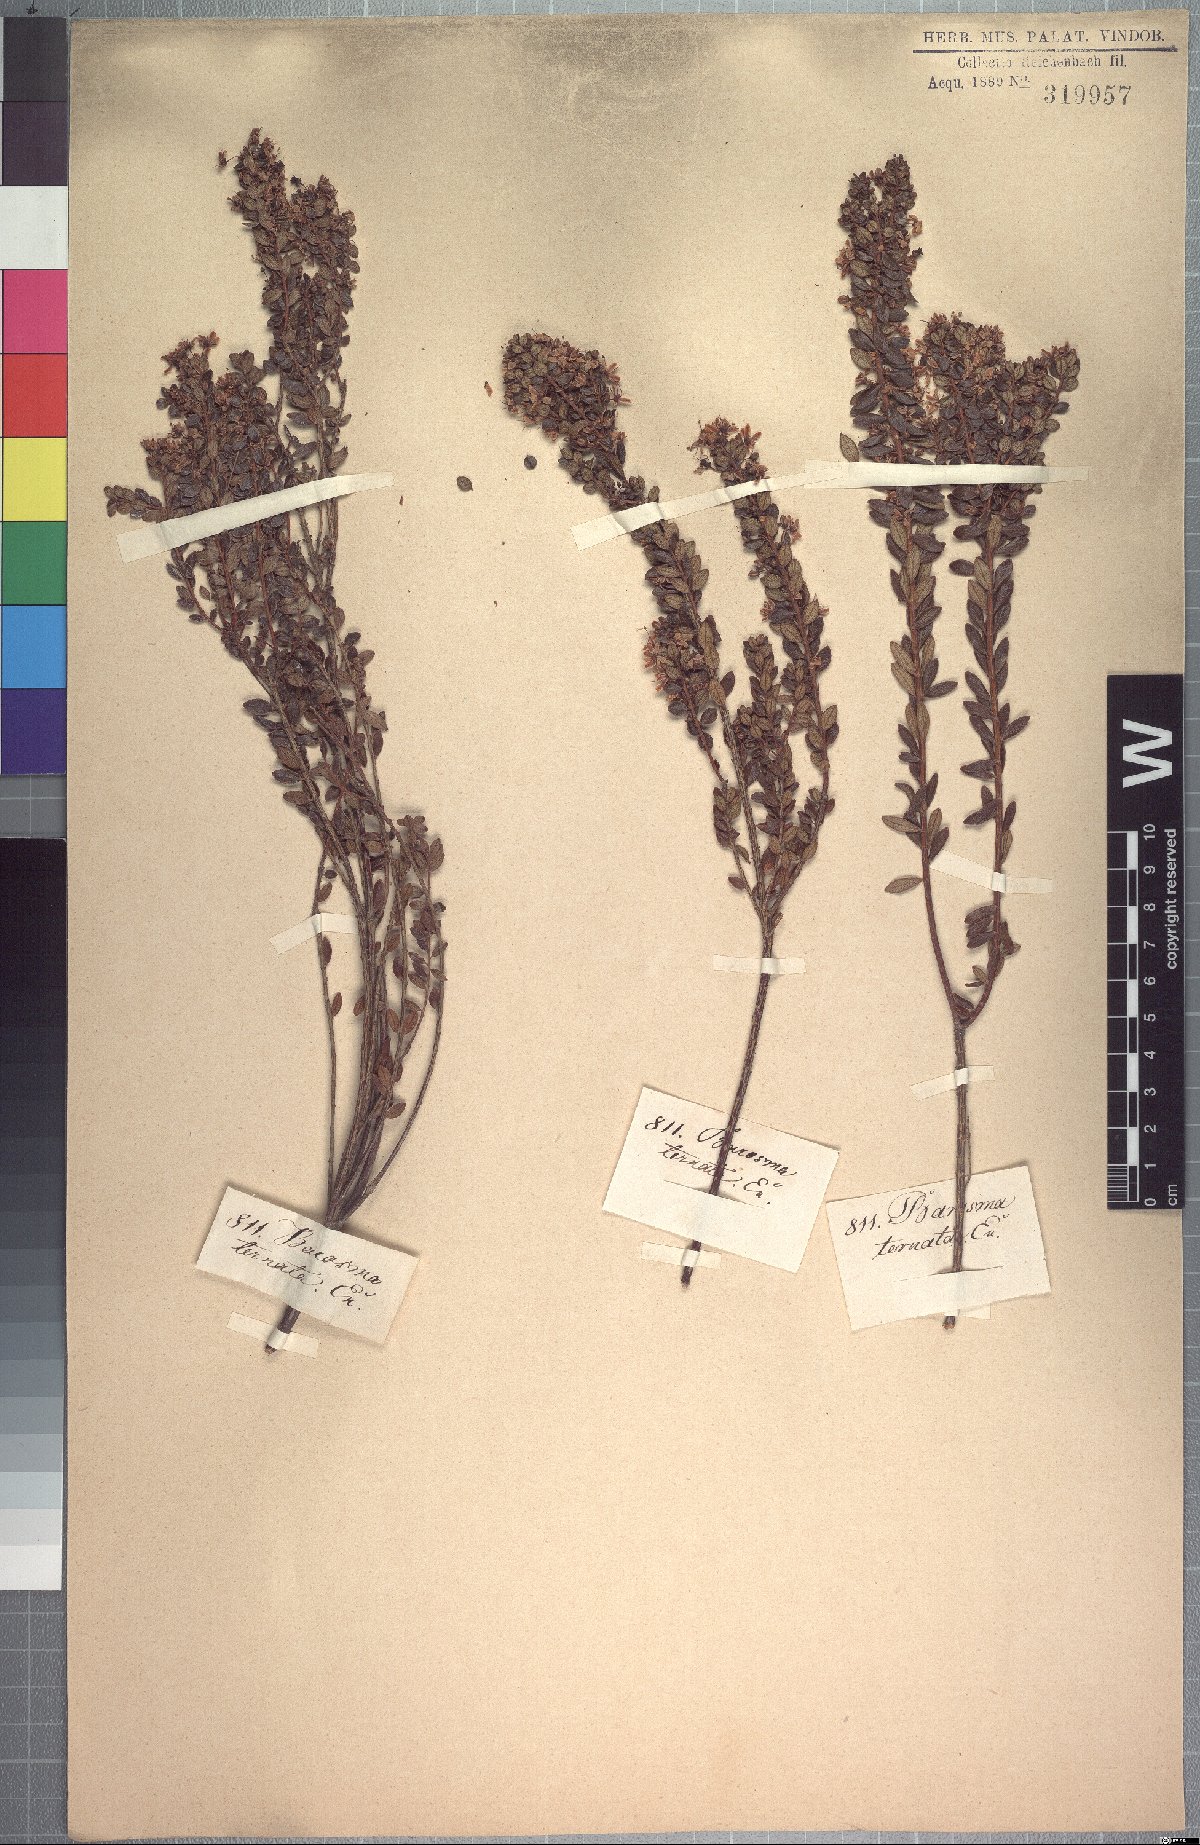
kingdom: Plantae
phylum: Tracheophyta
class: Magnoliopsida
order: Sapindales
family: Rutaceae
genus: Agathosma
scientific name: Agathosma ovata
